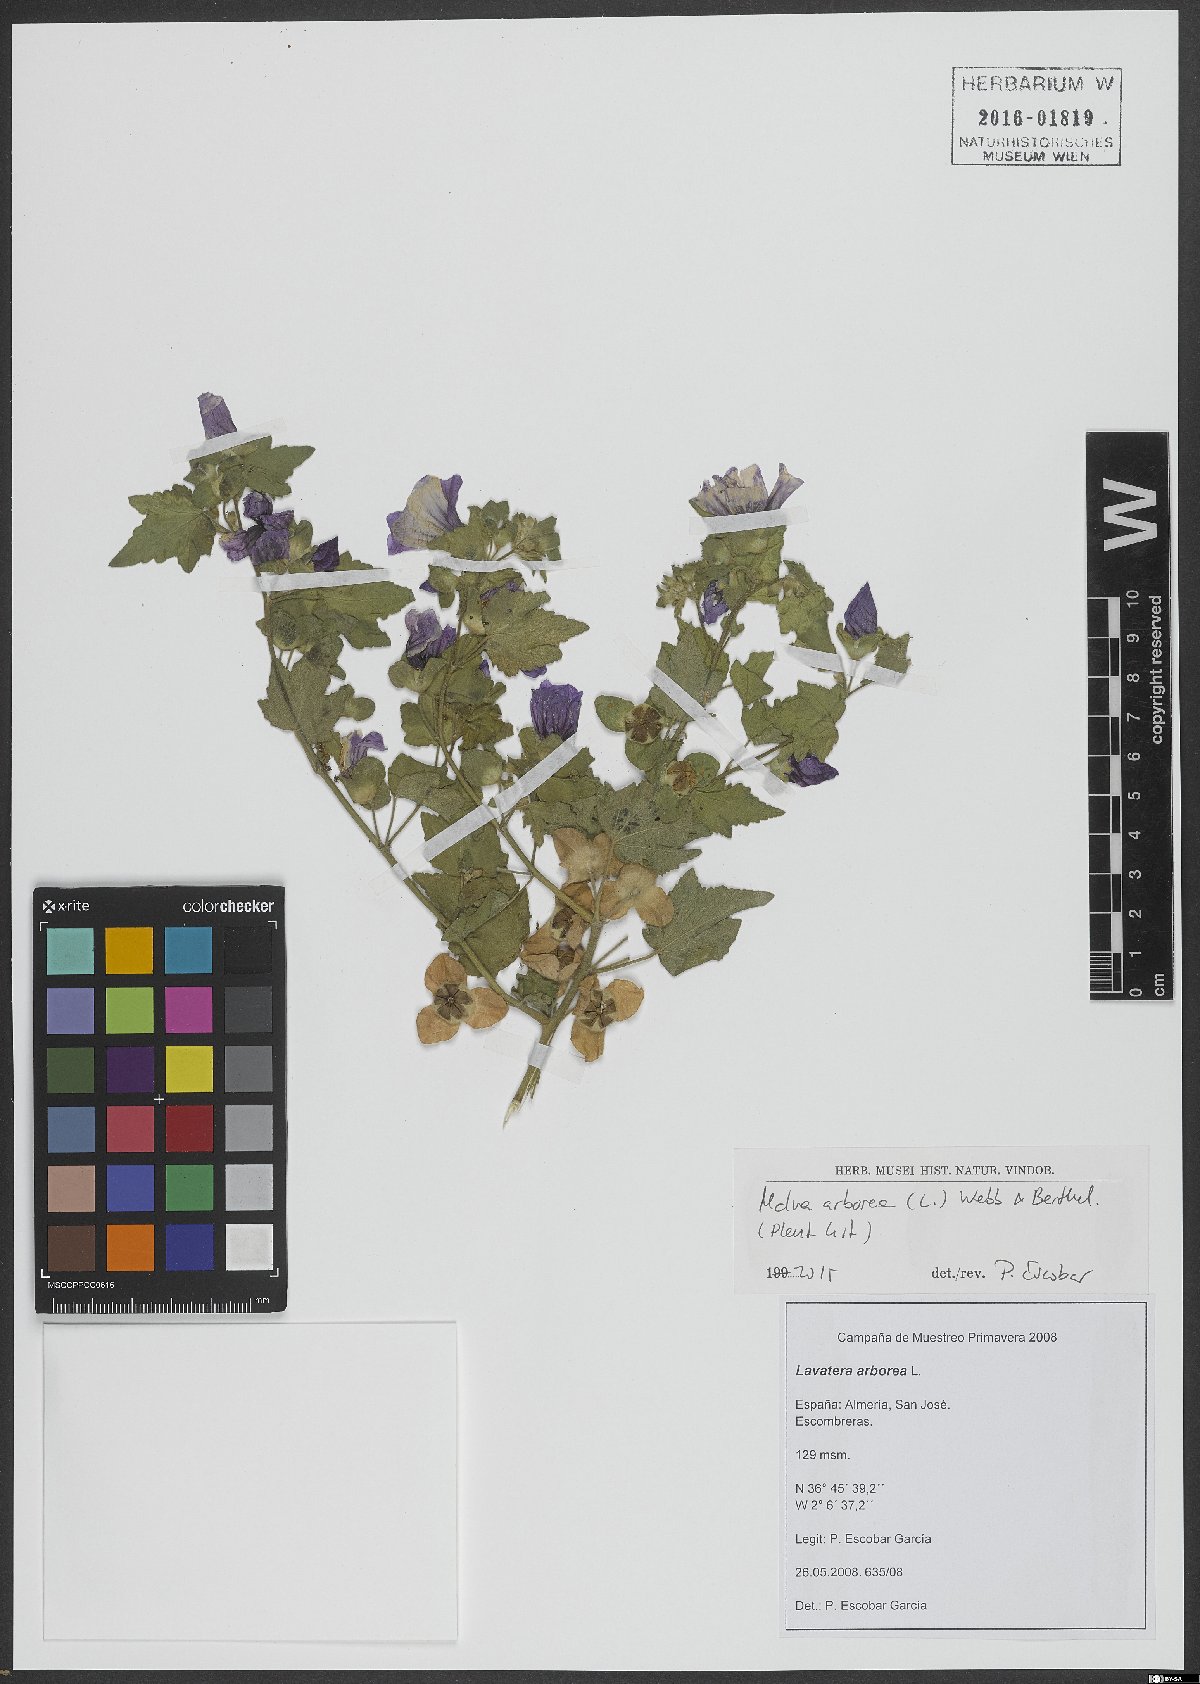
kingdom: Plantae
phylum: Tracheophyta
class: Magnoliopsida
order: Malvales
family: Malvaceae
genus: Malva
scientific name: Malva arborea
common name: Tree mallow
